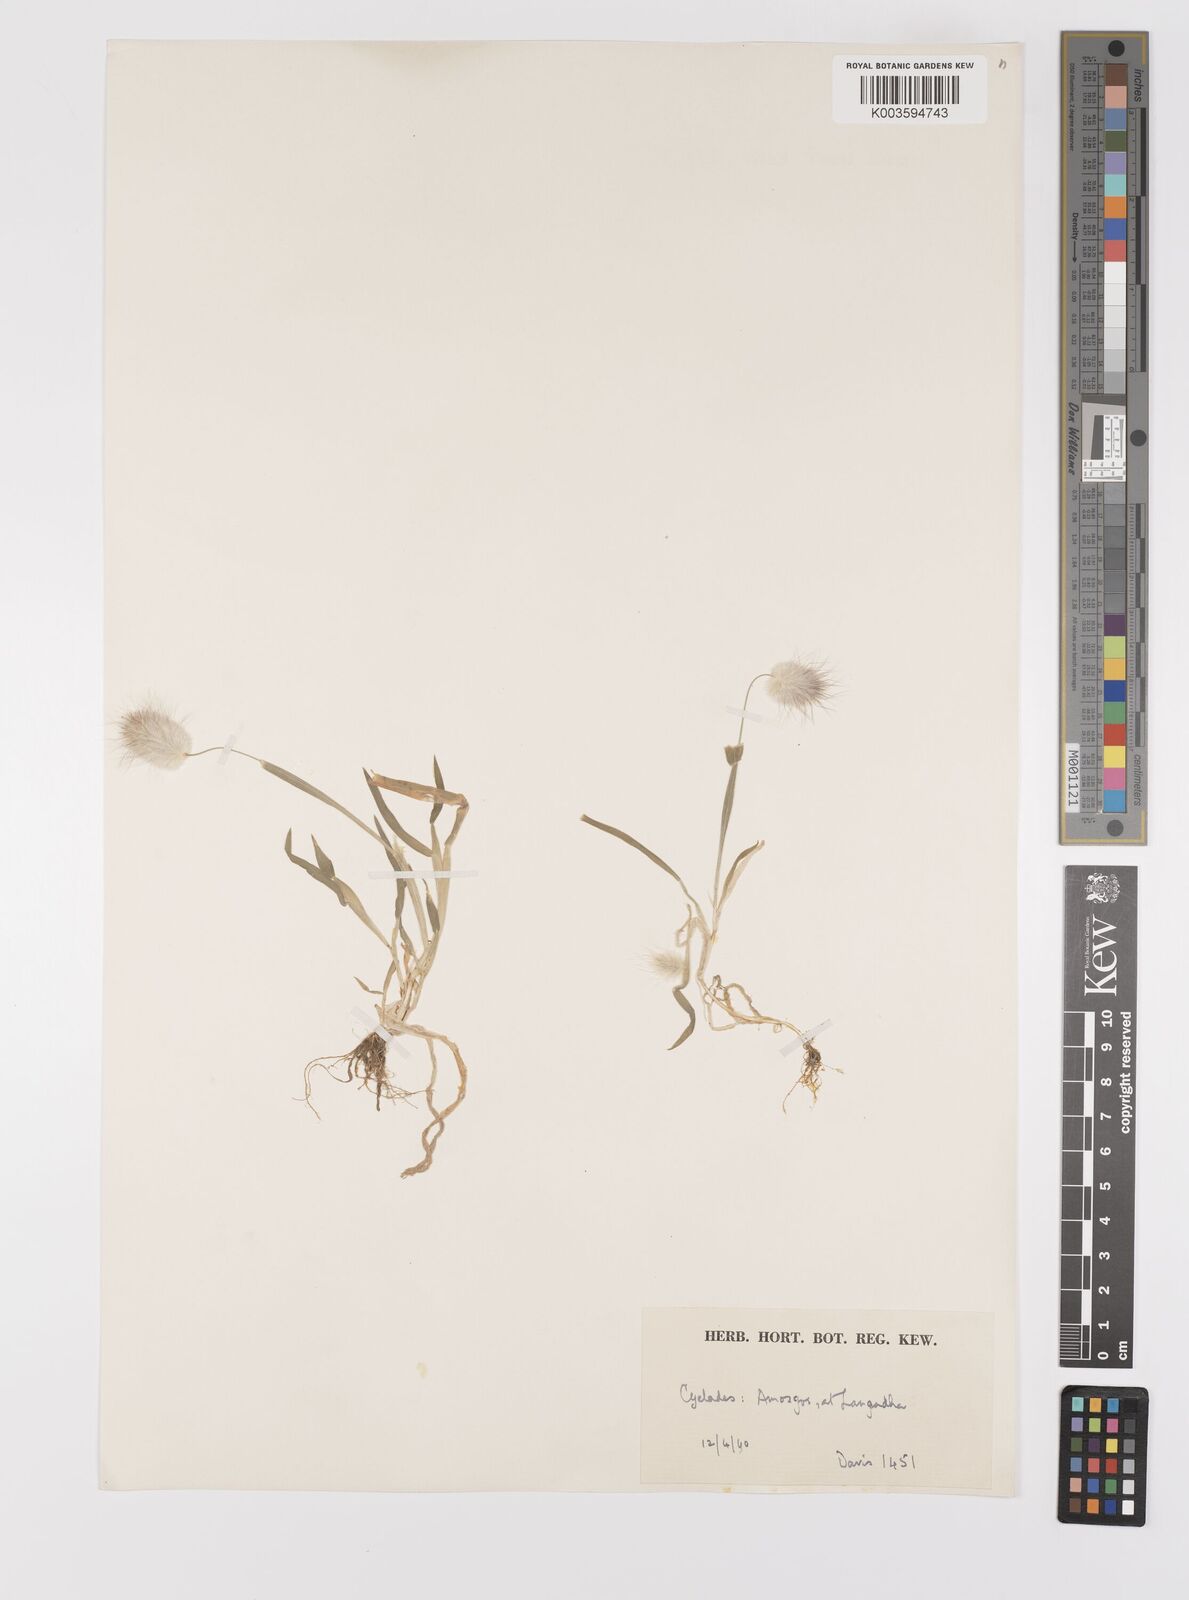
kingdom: Plantae
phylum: Tracheophyta
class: Liliopsida
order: Poales
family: Poaceae
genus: Lagurus
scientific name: Lagurus ovatus
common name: Hare's-tail
